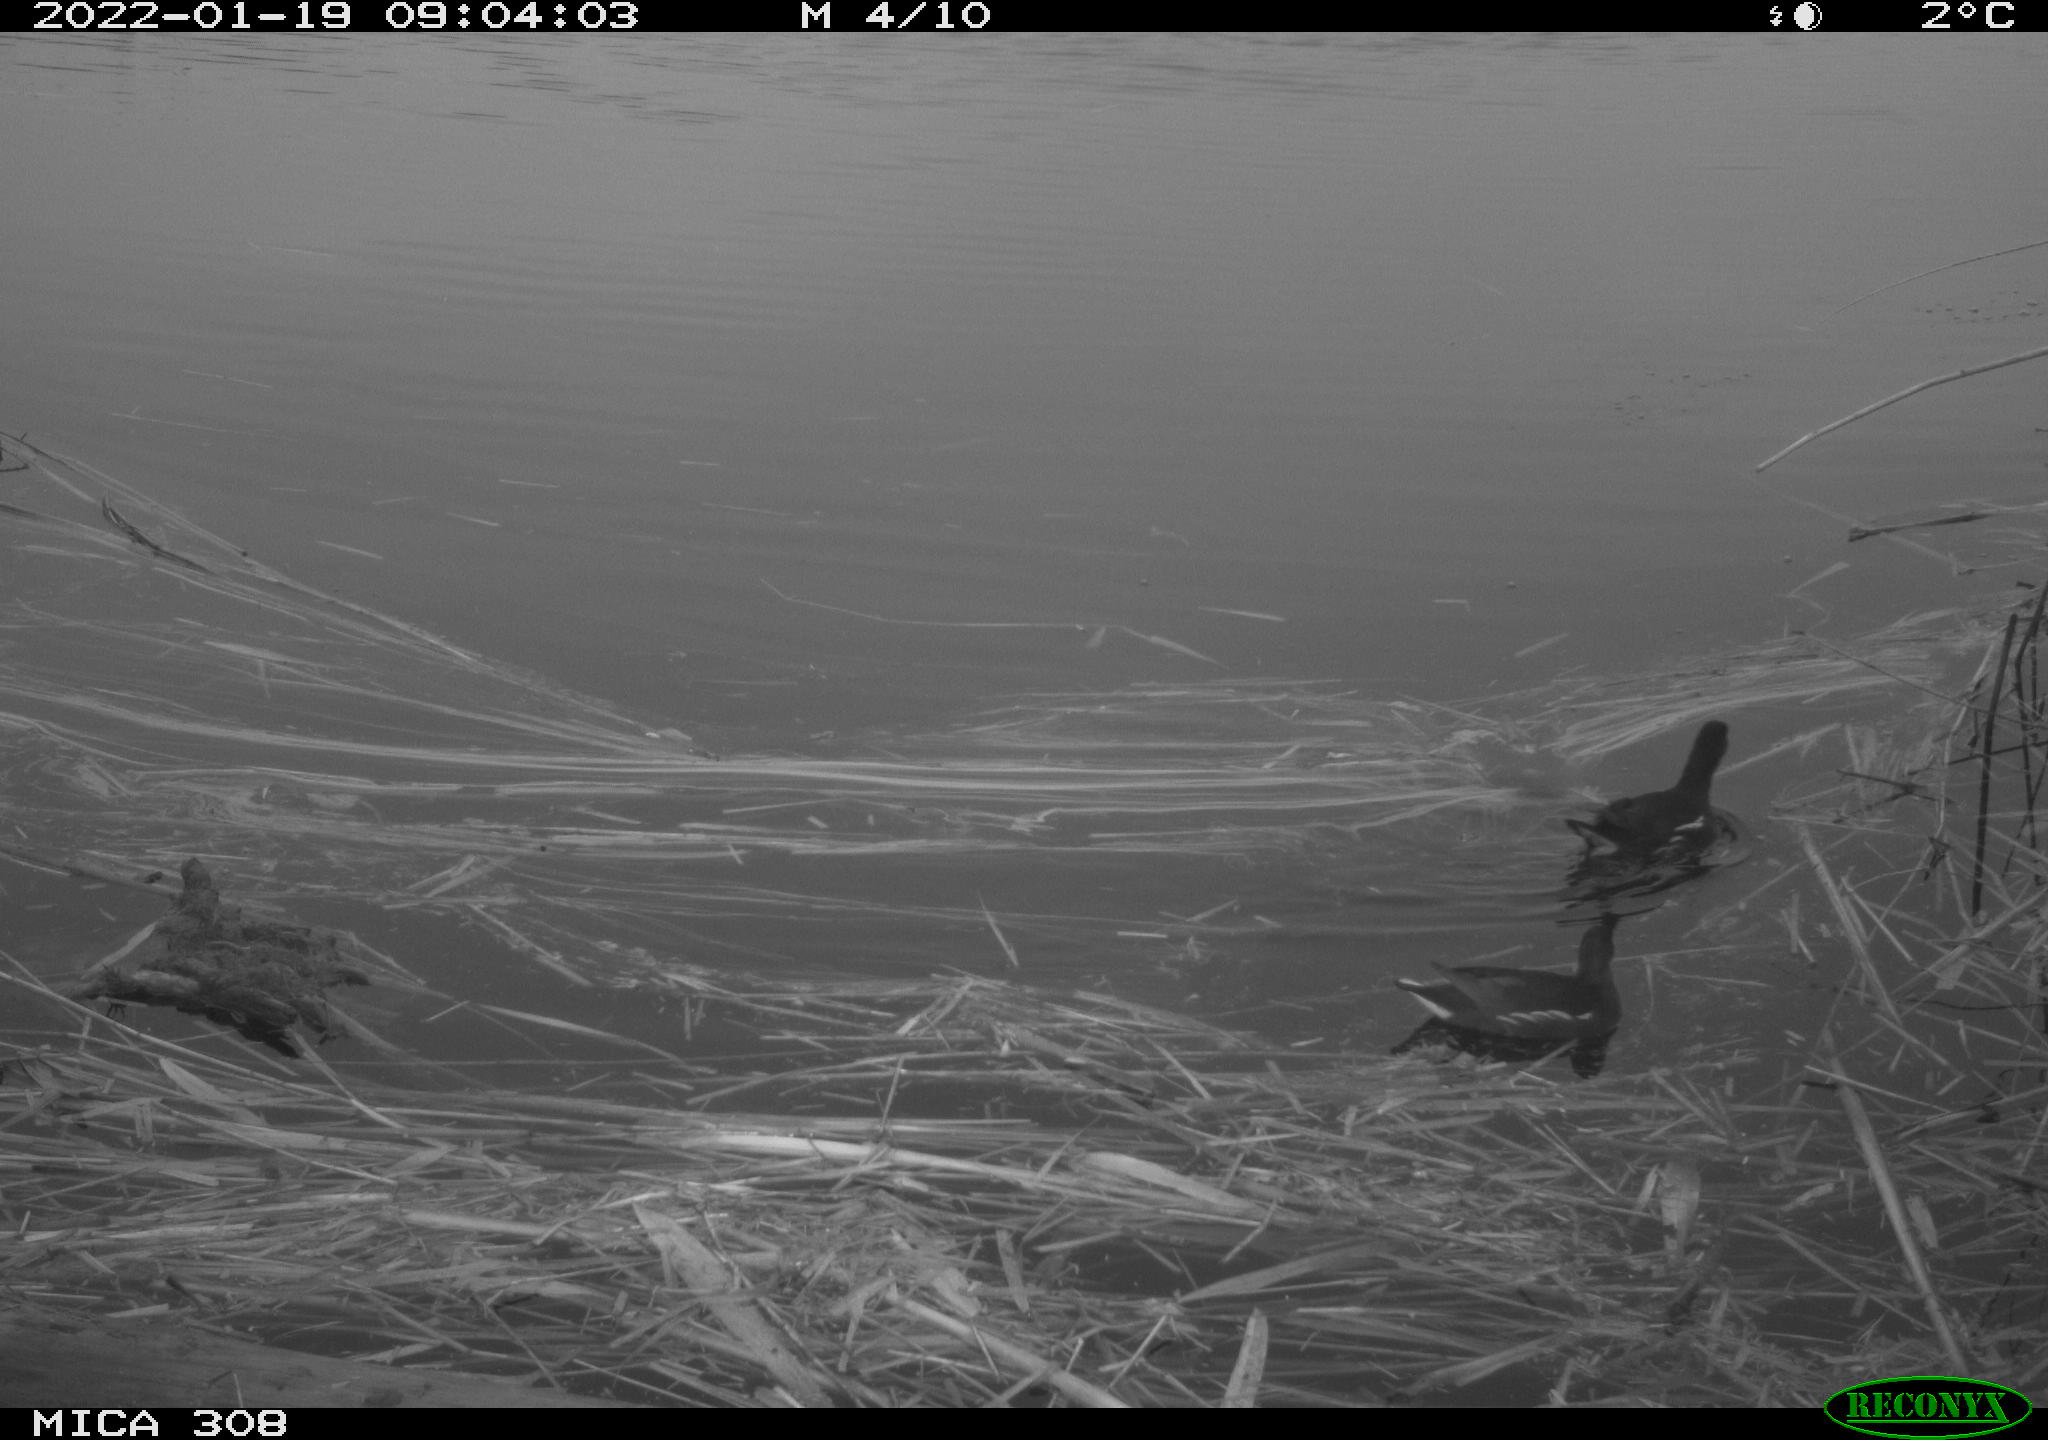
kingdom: Animalia
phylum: Chordata
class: Aves
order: Gruiformes
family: Rallidae
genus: Gallinula
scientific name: Gallinula chloropus
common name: Common moorhen
